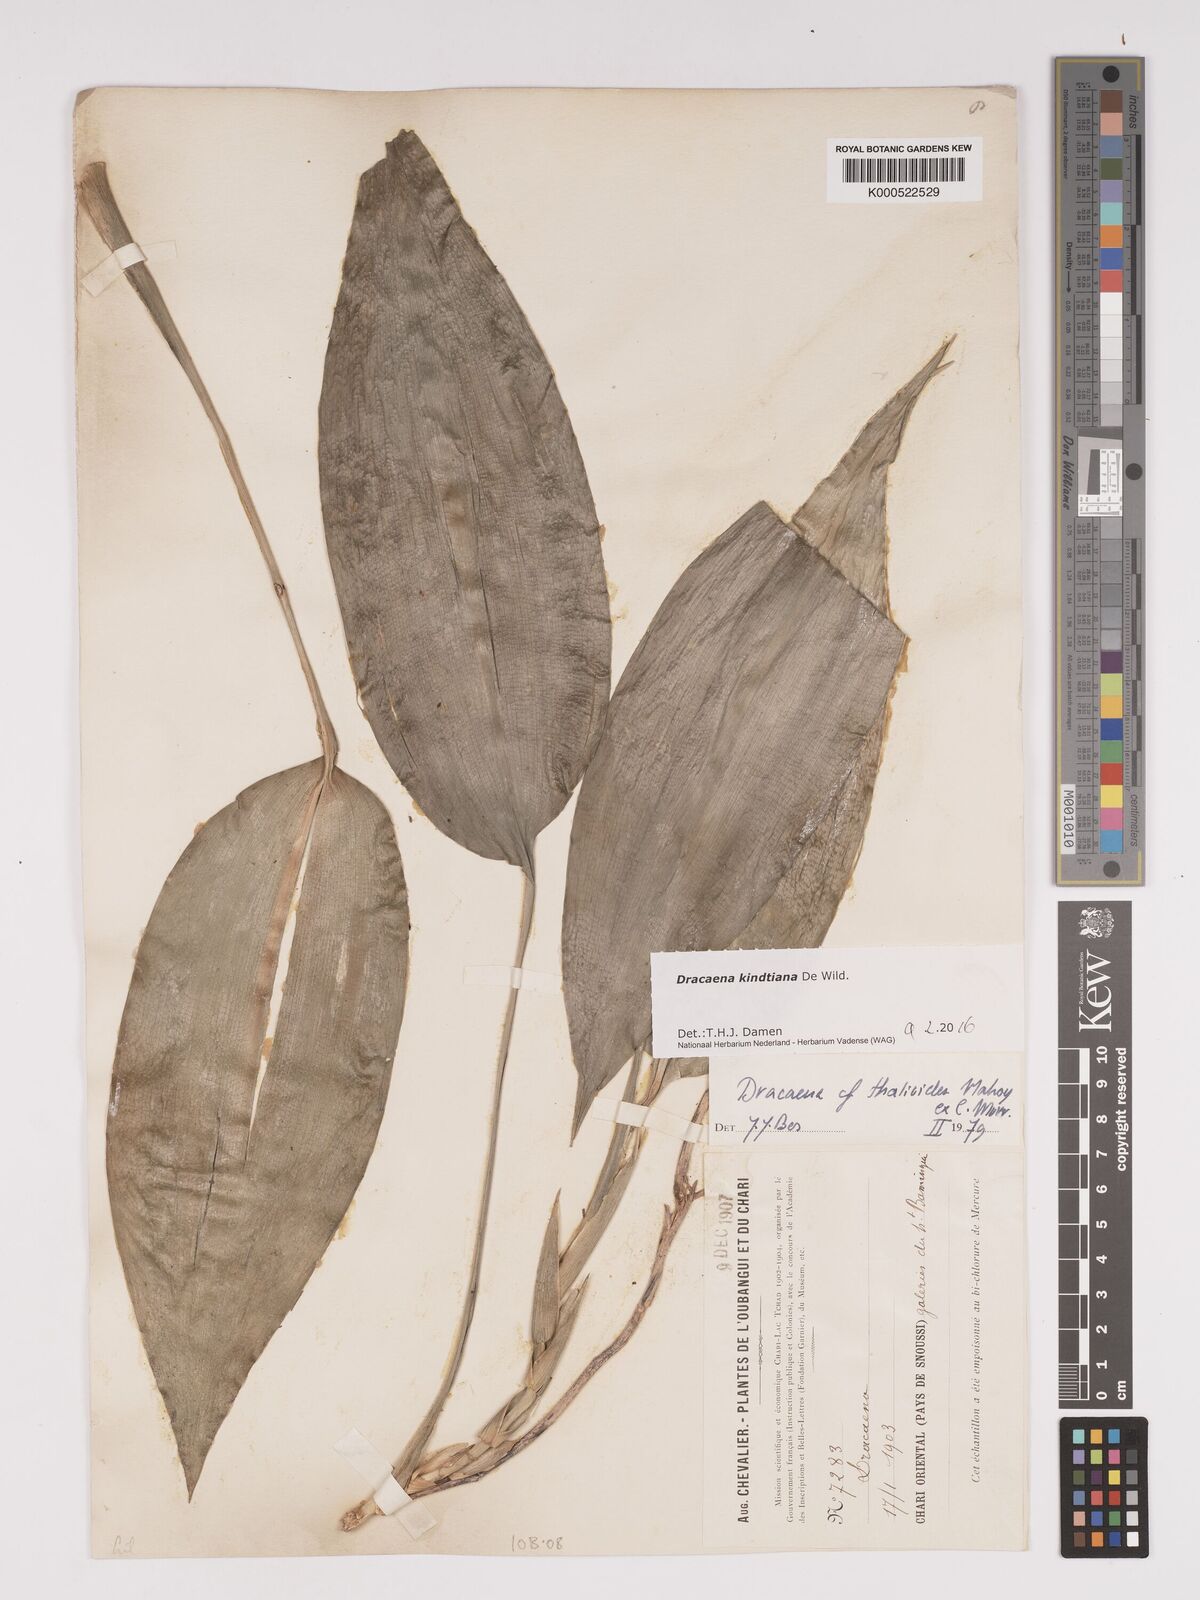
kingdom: Plantae
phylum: Tracheophyta
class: Liliopsida
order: Asparagales
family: Asparagaceae
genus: Dracaena
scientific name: Dracaena kindtiana
